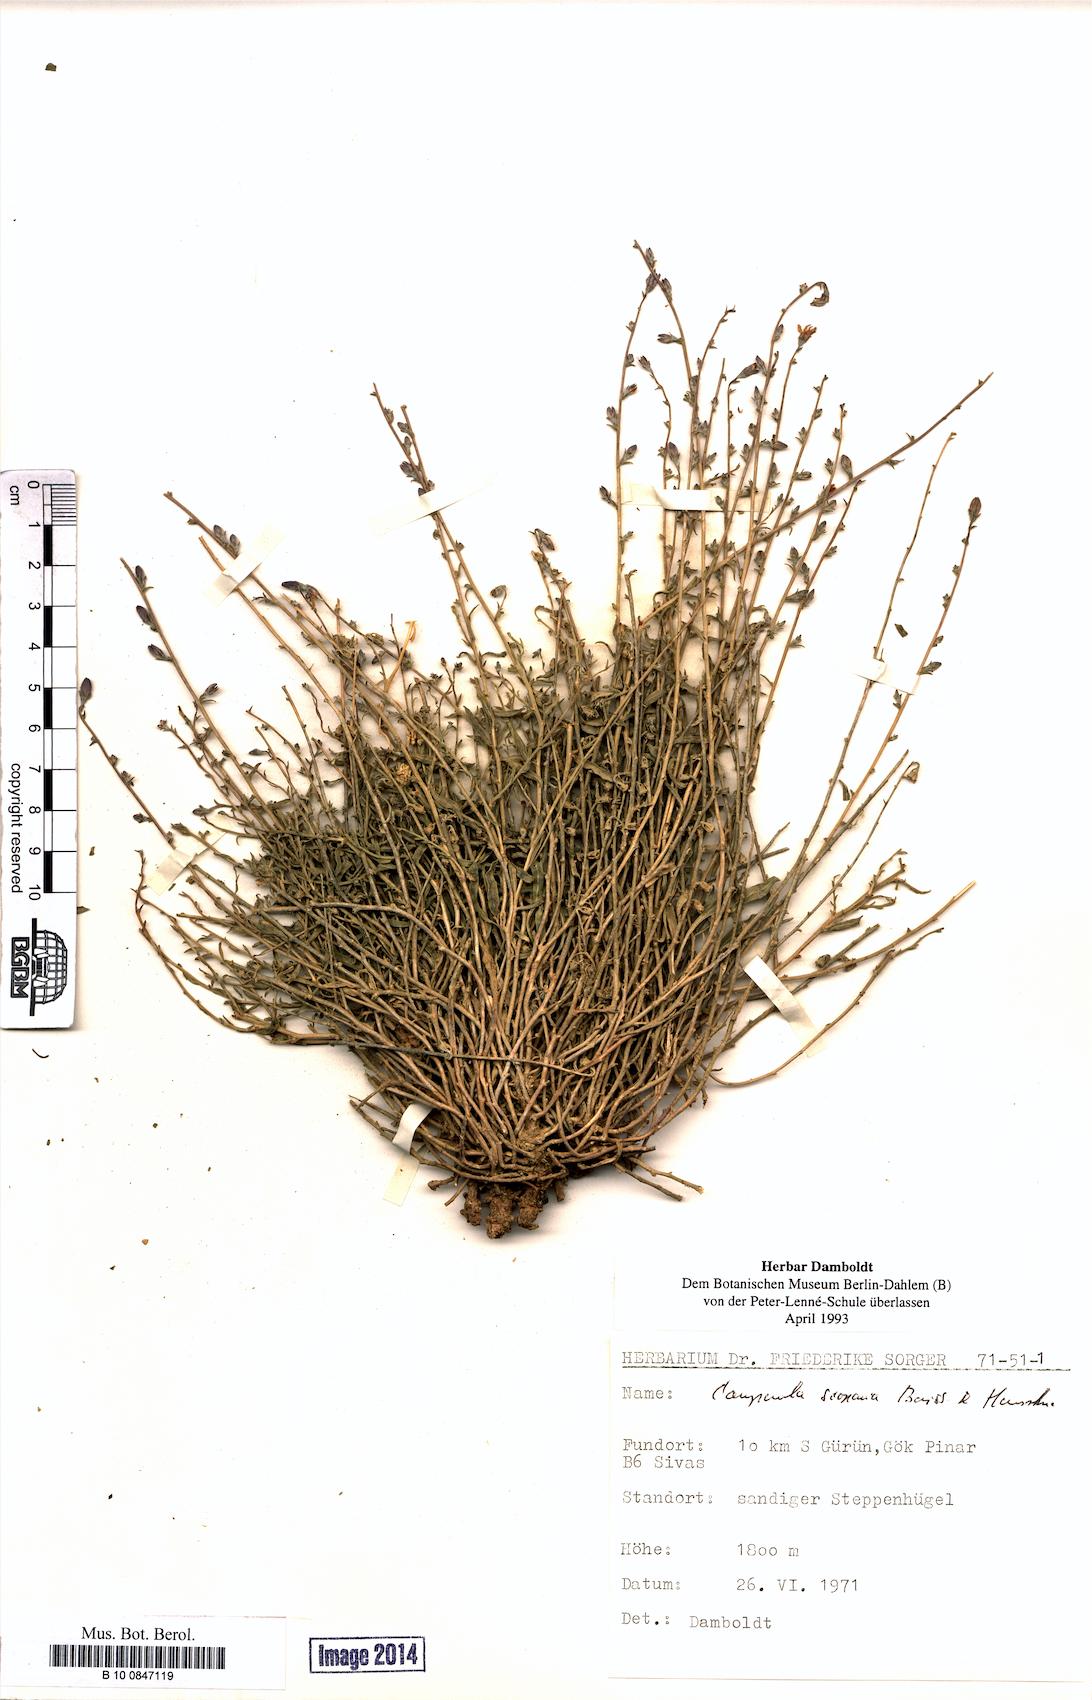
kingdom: Plantae
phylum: Tracheophyta
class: Magnoliopsida
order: Asterales
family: Campanulaceae
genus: Campanula
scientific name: Campanula scoparia
